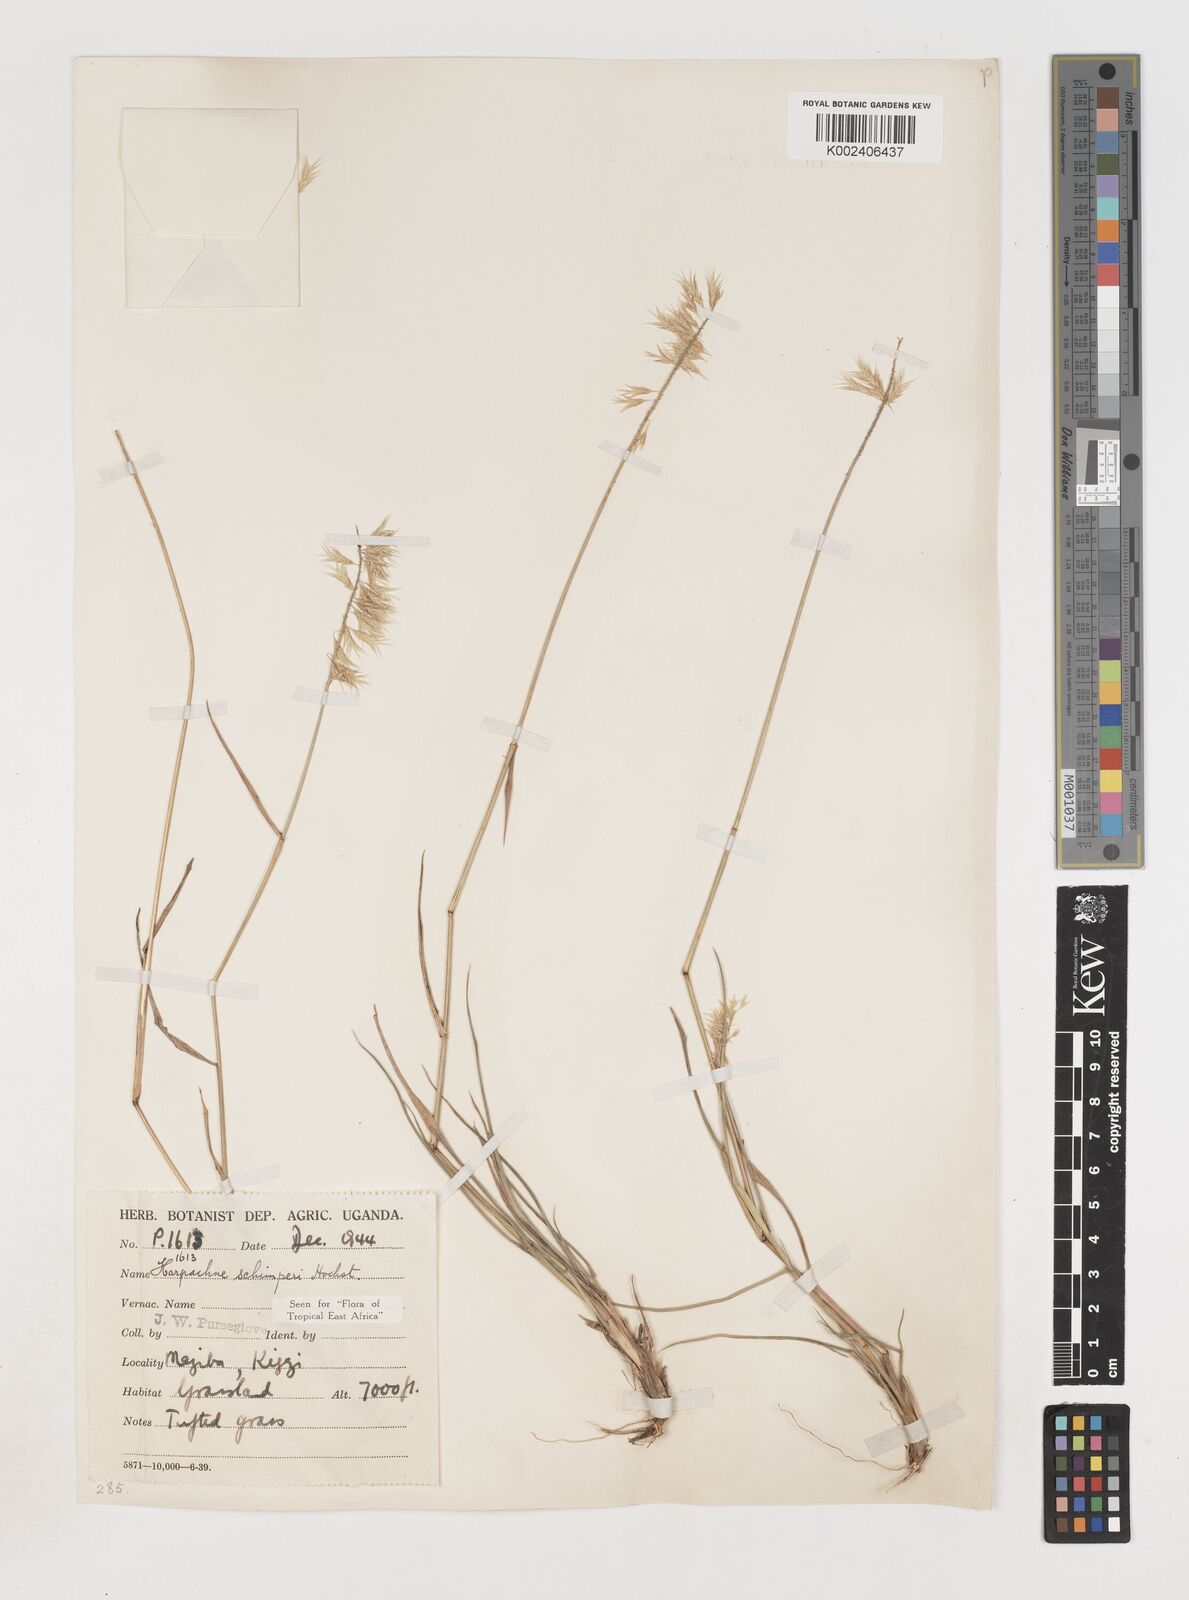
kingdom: Plantae
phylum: Tracheophyta
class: Liliopsida
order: Poales
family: Poaceae
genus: Harpachne
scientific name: Harpachne schimperi
